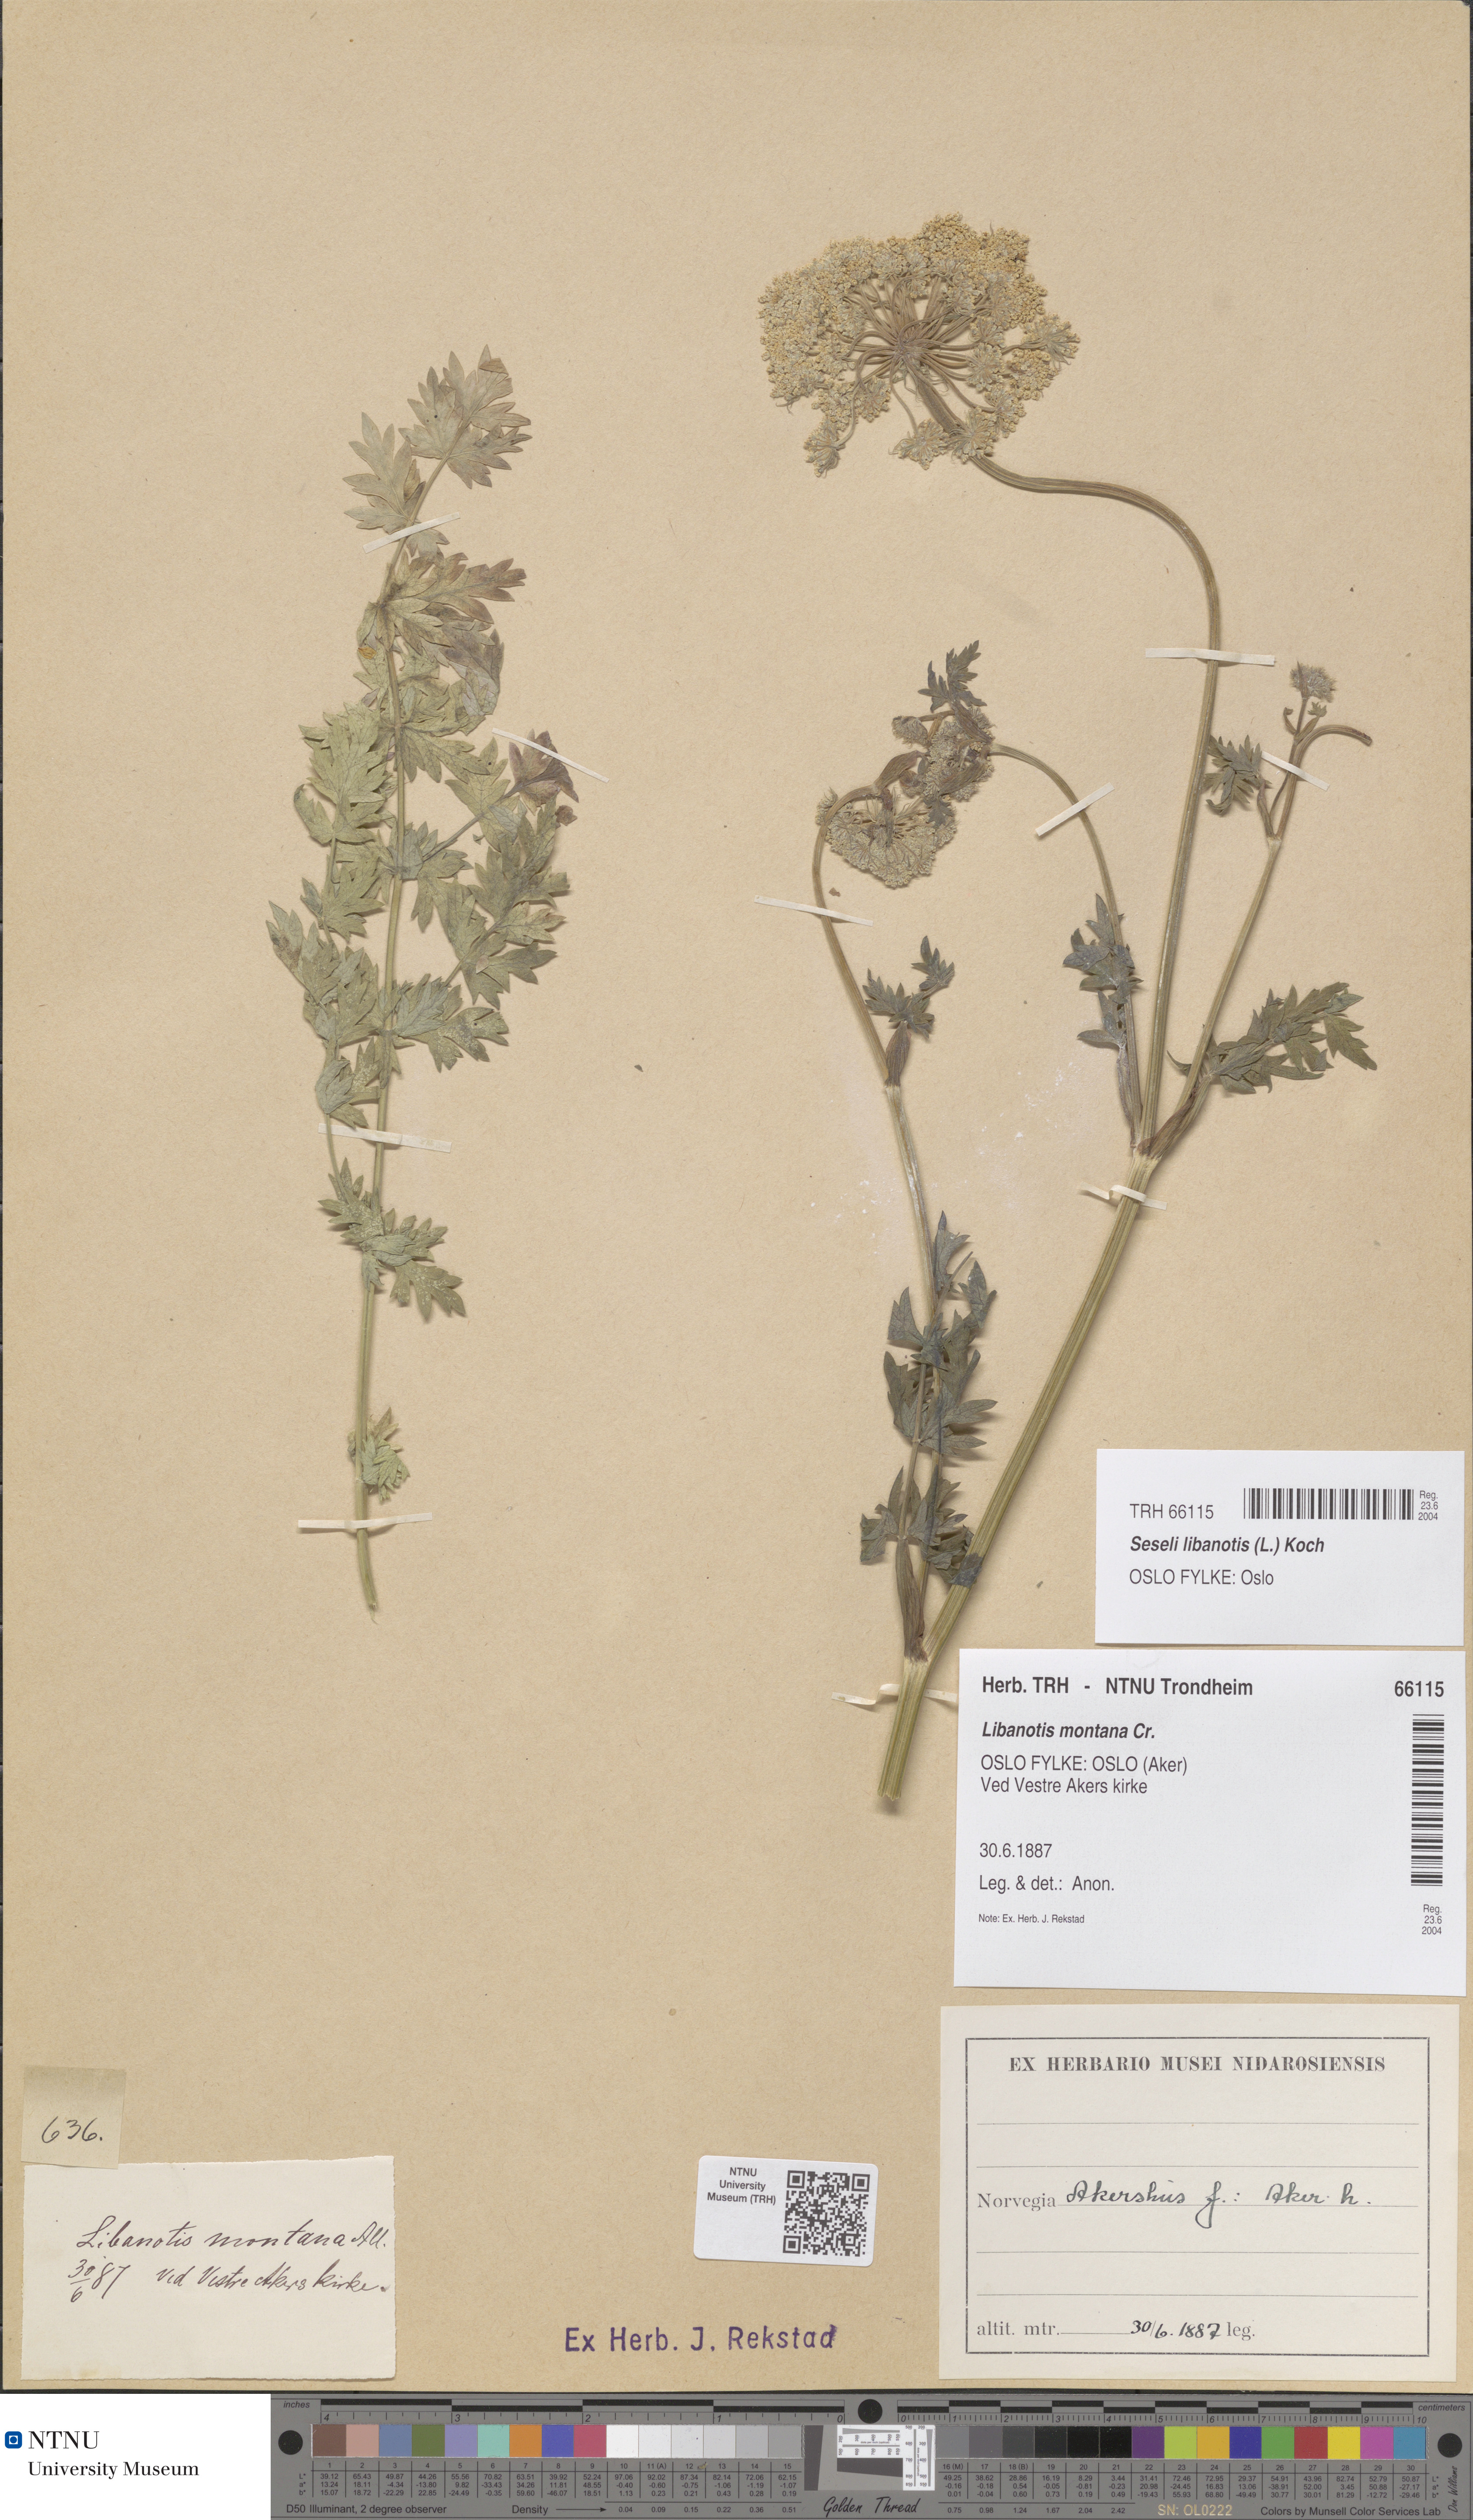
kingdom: Plantae
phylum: Tracheophyta
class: Magnoliopsida
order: Apiales
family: Apiaceae
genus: Seseli
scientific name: Seseli libanotis
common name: Mooncarrot
